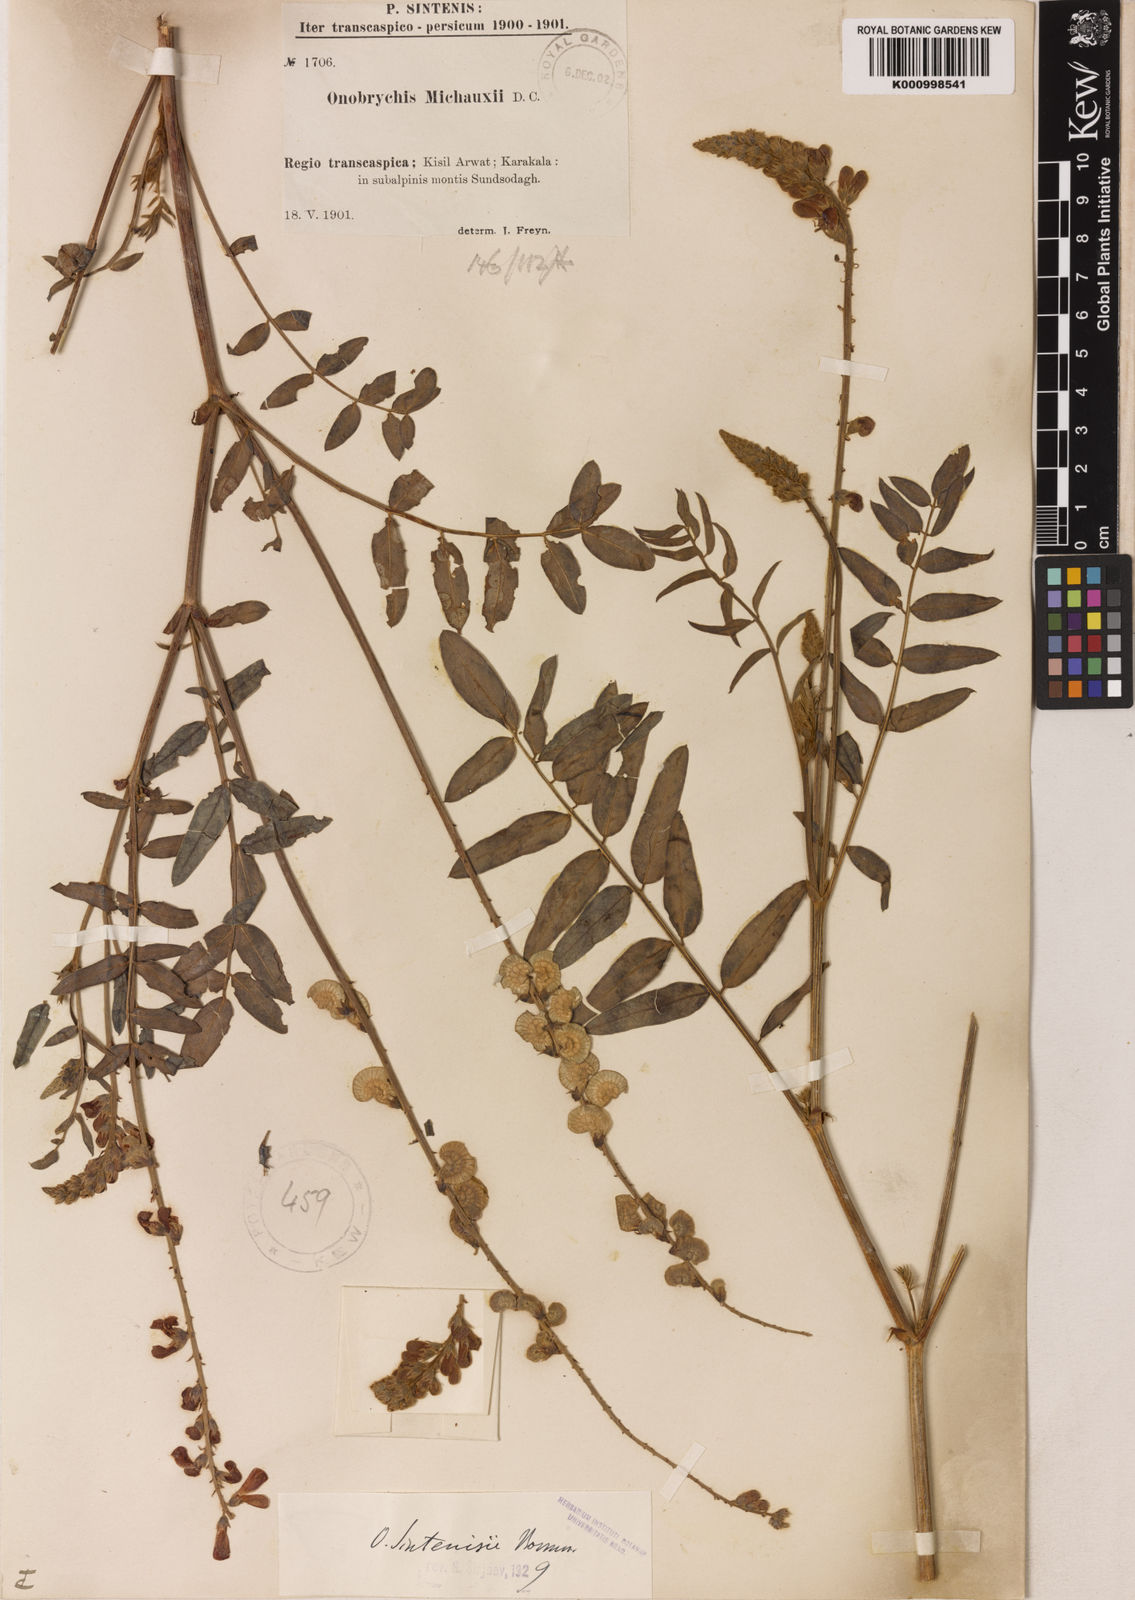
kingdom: Plantae
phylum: Tracheophyta
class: Magnoliopsida
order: Fabales
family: Fabaceae
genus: Onobrychis
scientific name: Onobrychis
